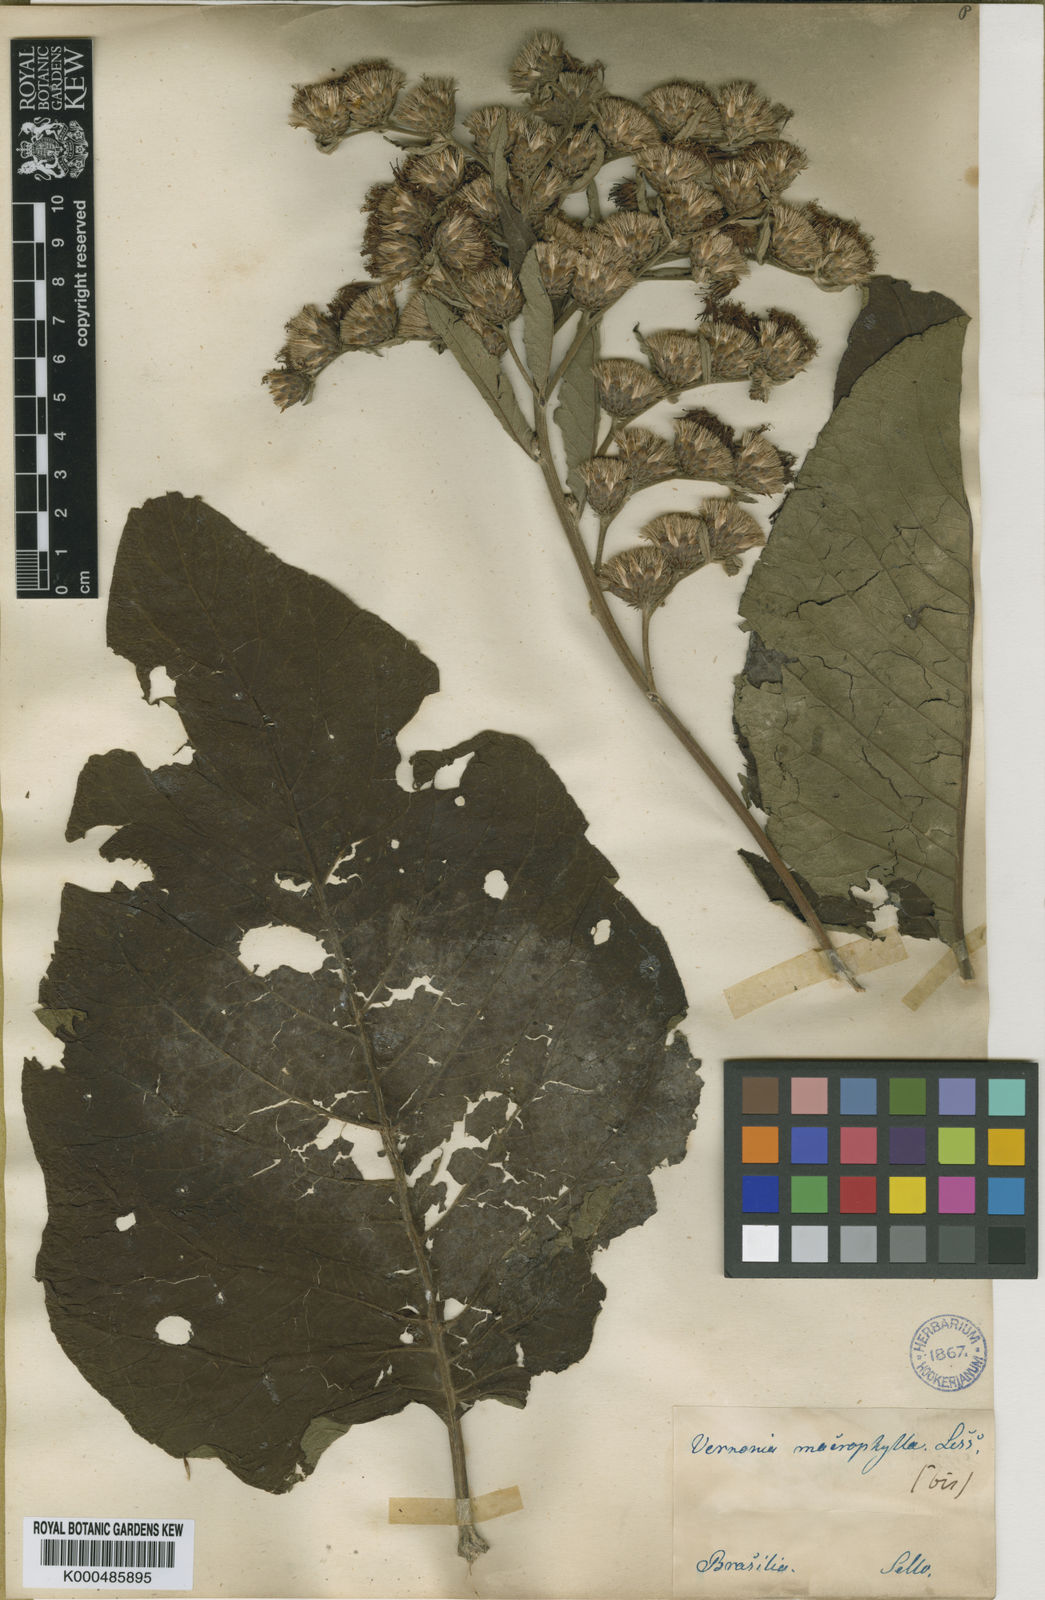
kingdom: Plantae
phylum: Tracheophyta
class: Magnoliopsida
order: Asterales
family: Asteraceae
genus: Lessingianthus
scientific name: Lessingianthus macrophyllus
